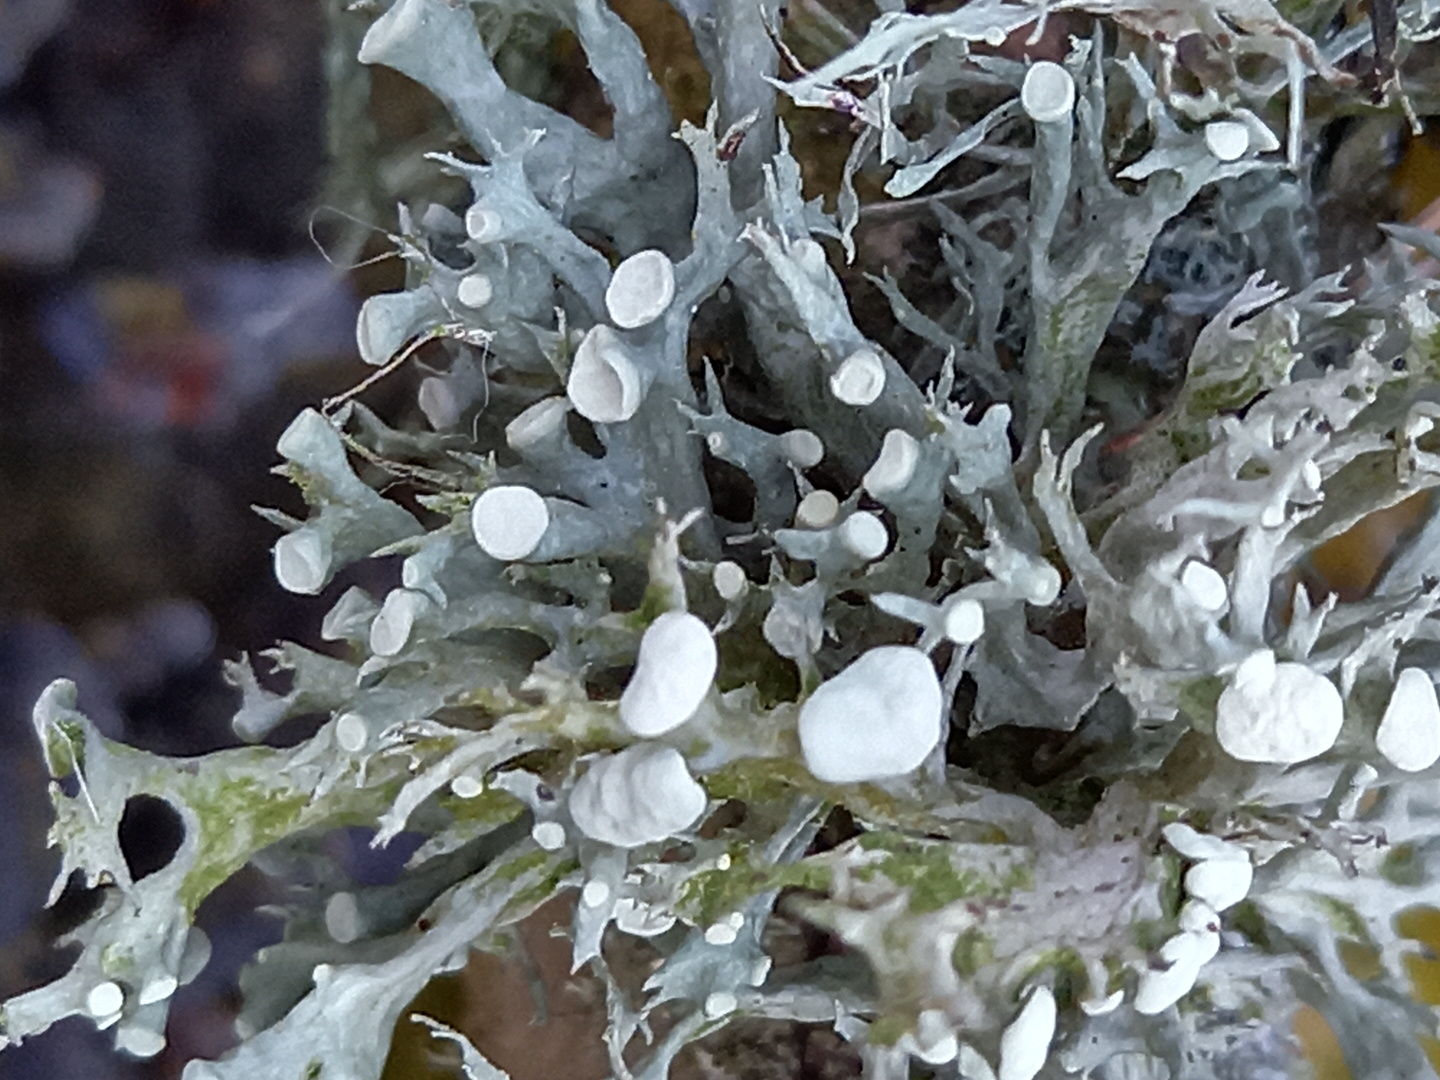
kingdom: Fungi
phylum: Ascomycota
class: Lecanoromycetes
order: Lecanorales
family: Ramalinaceae
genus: Ramalina
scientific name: Ramalina fastigiata
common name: tue-grenlav
